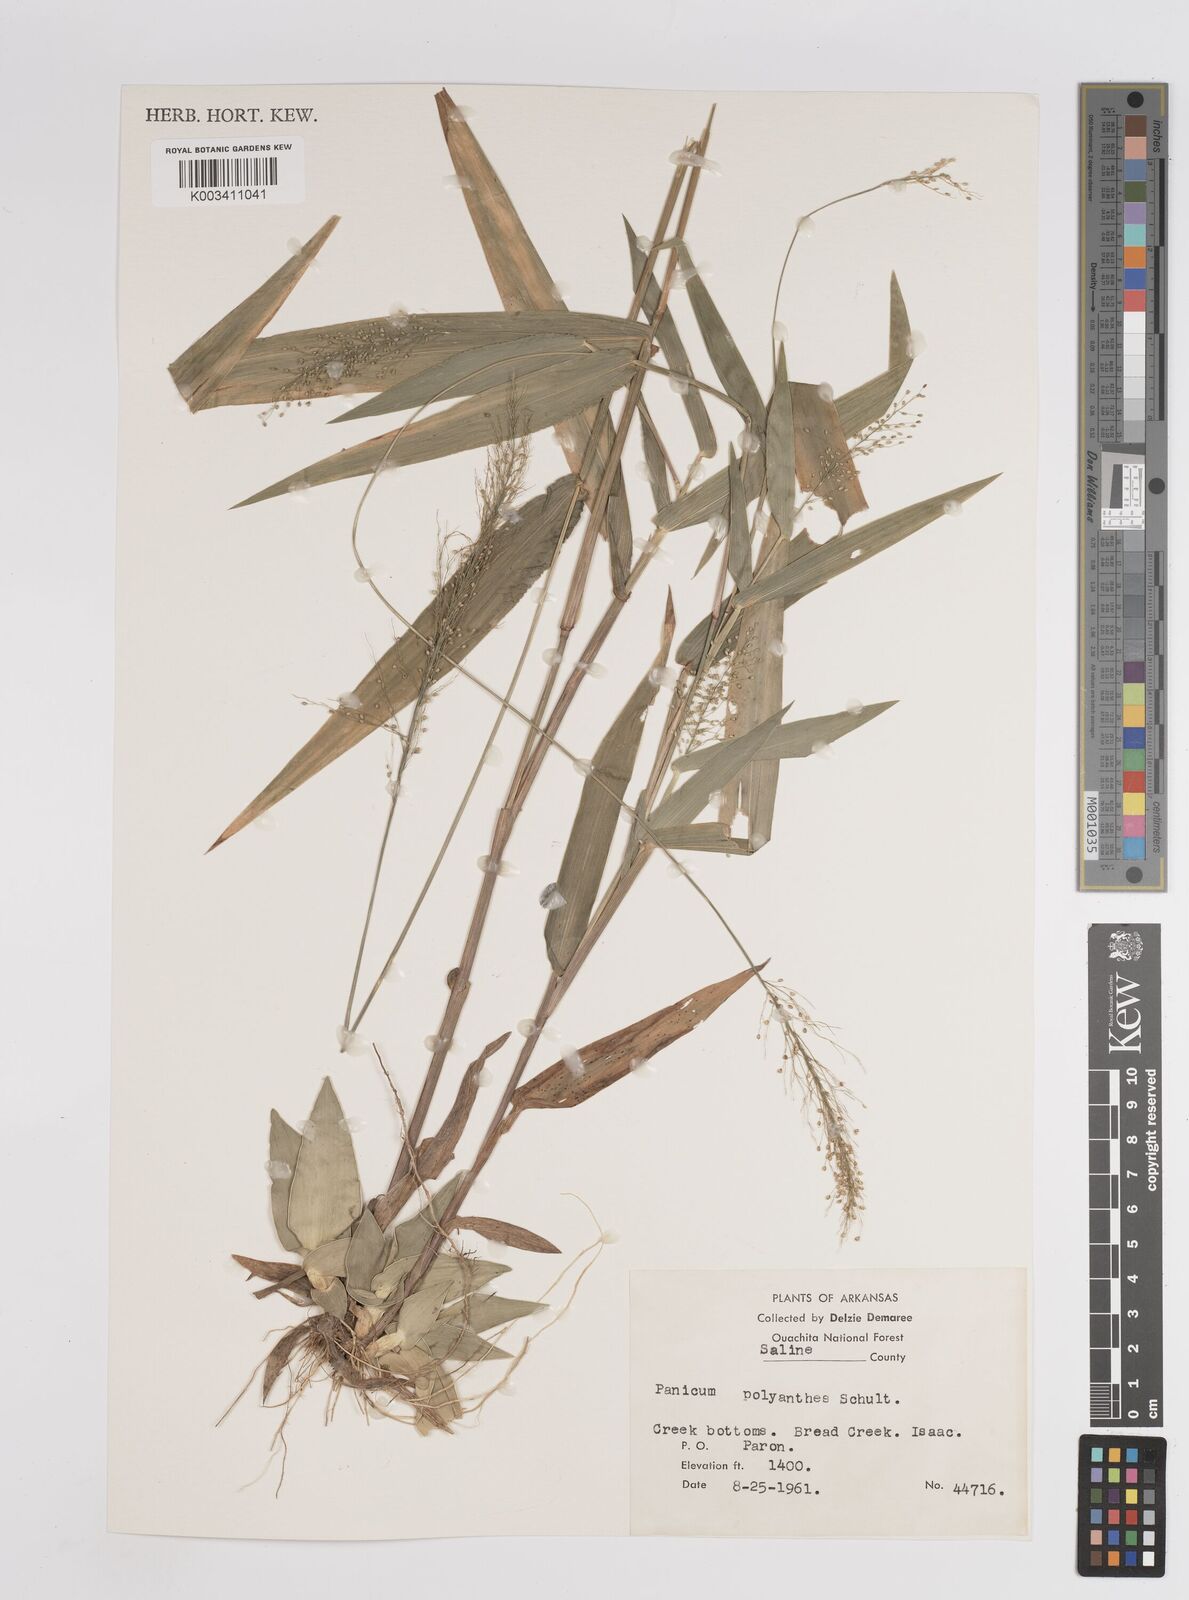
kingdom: Plantae
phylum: Tracheophyta
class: Liliopsida
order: Poales
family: Poaceae
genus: Dichanthelium
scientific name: Dichanthelium polyanthes
